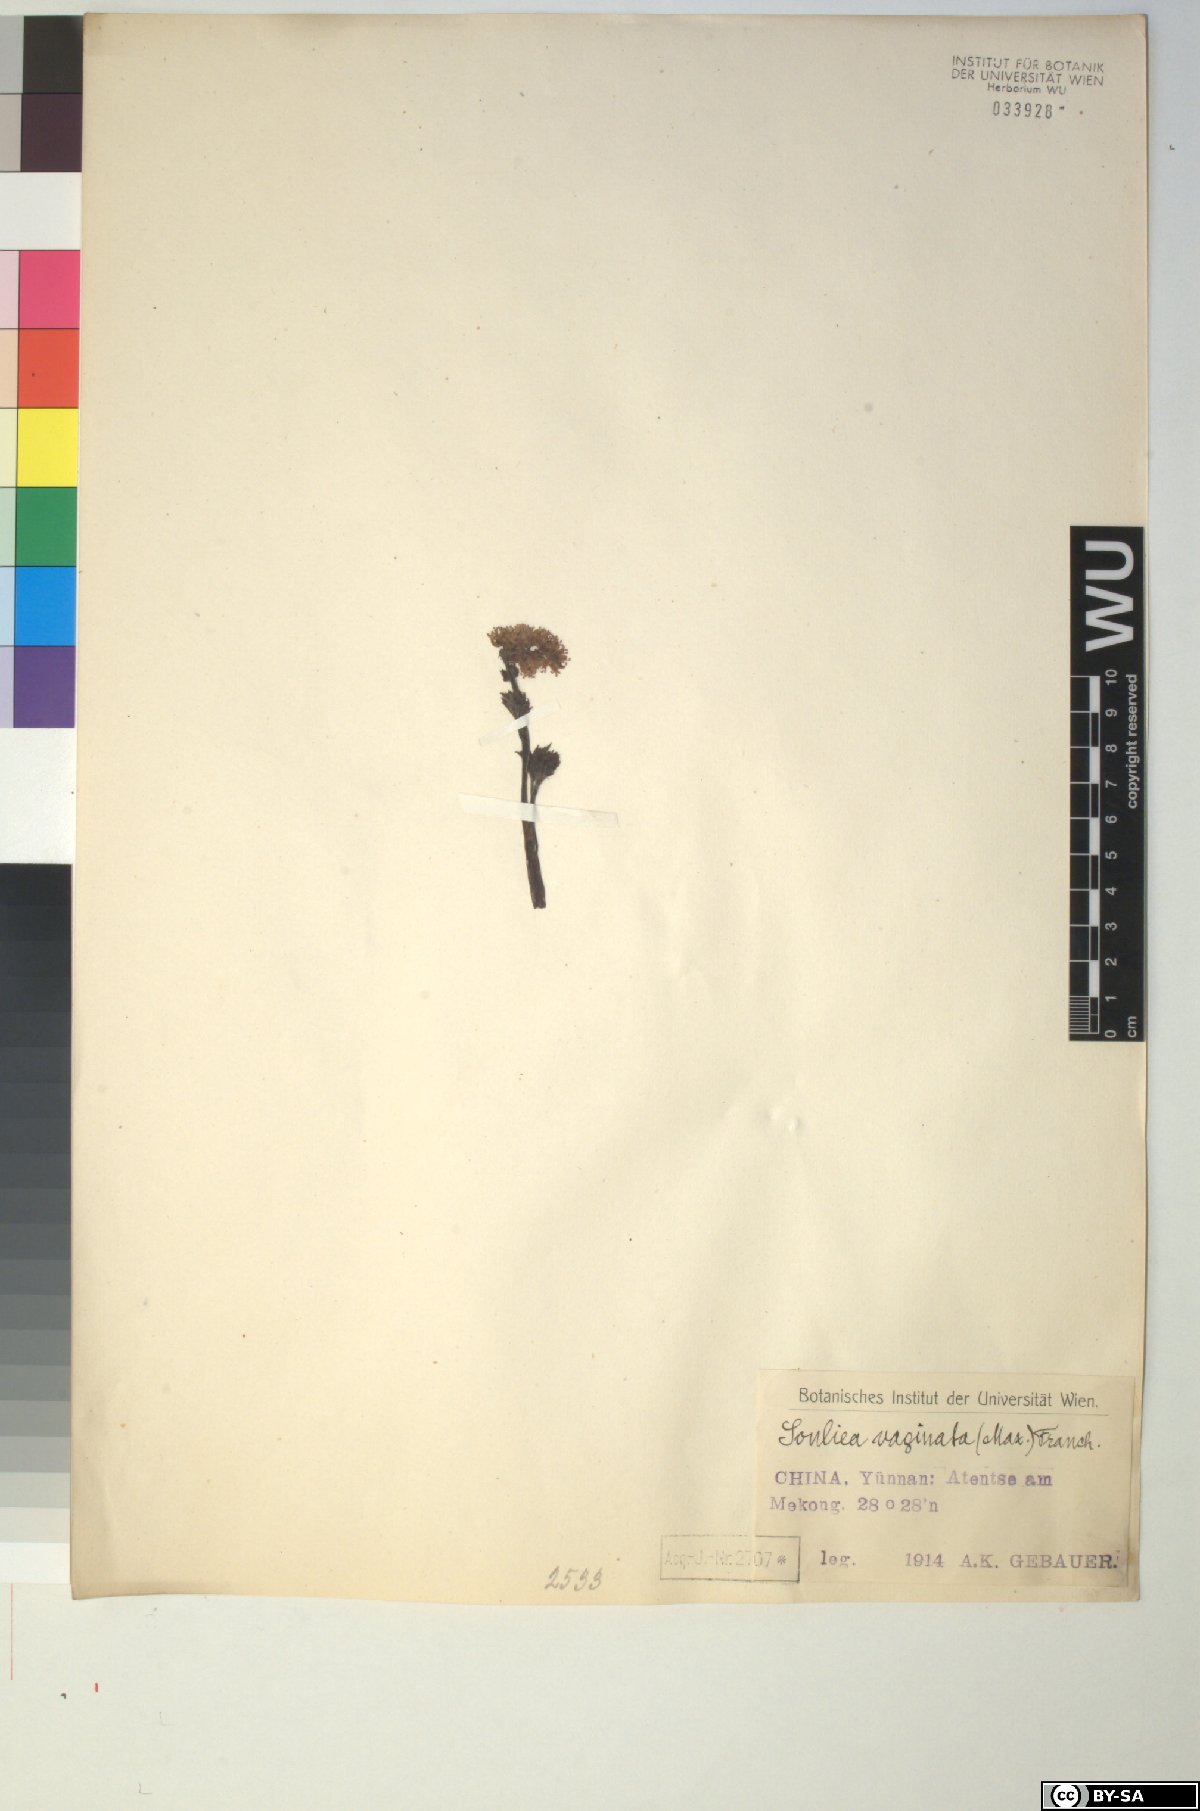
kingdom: Plantae
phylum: Tracheophyta
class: Magnoliopsida
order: Ranunculales
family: Ranunculaceae
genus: Actaea
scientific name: Actaea vaginata
